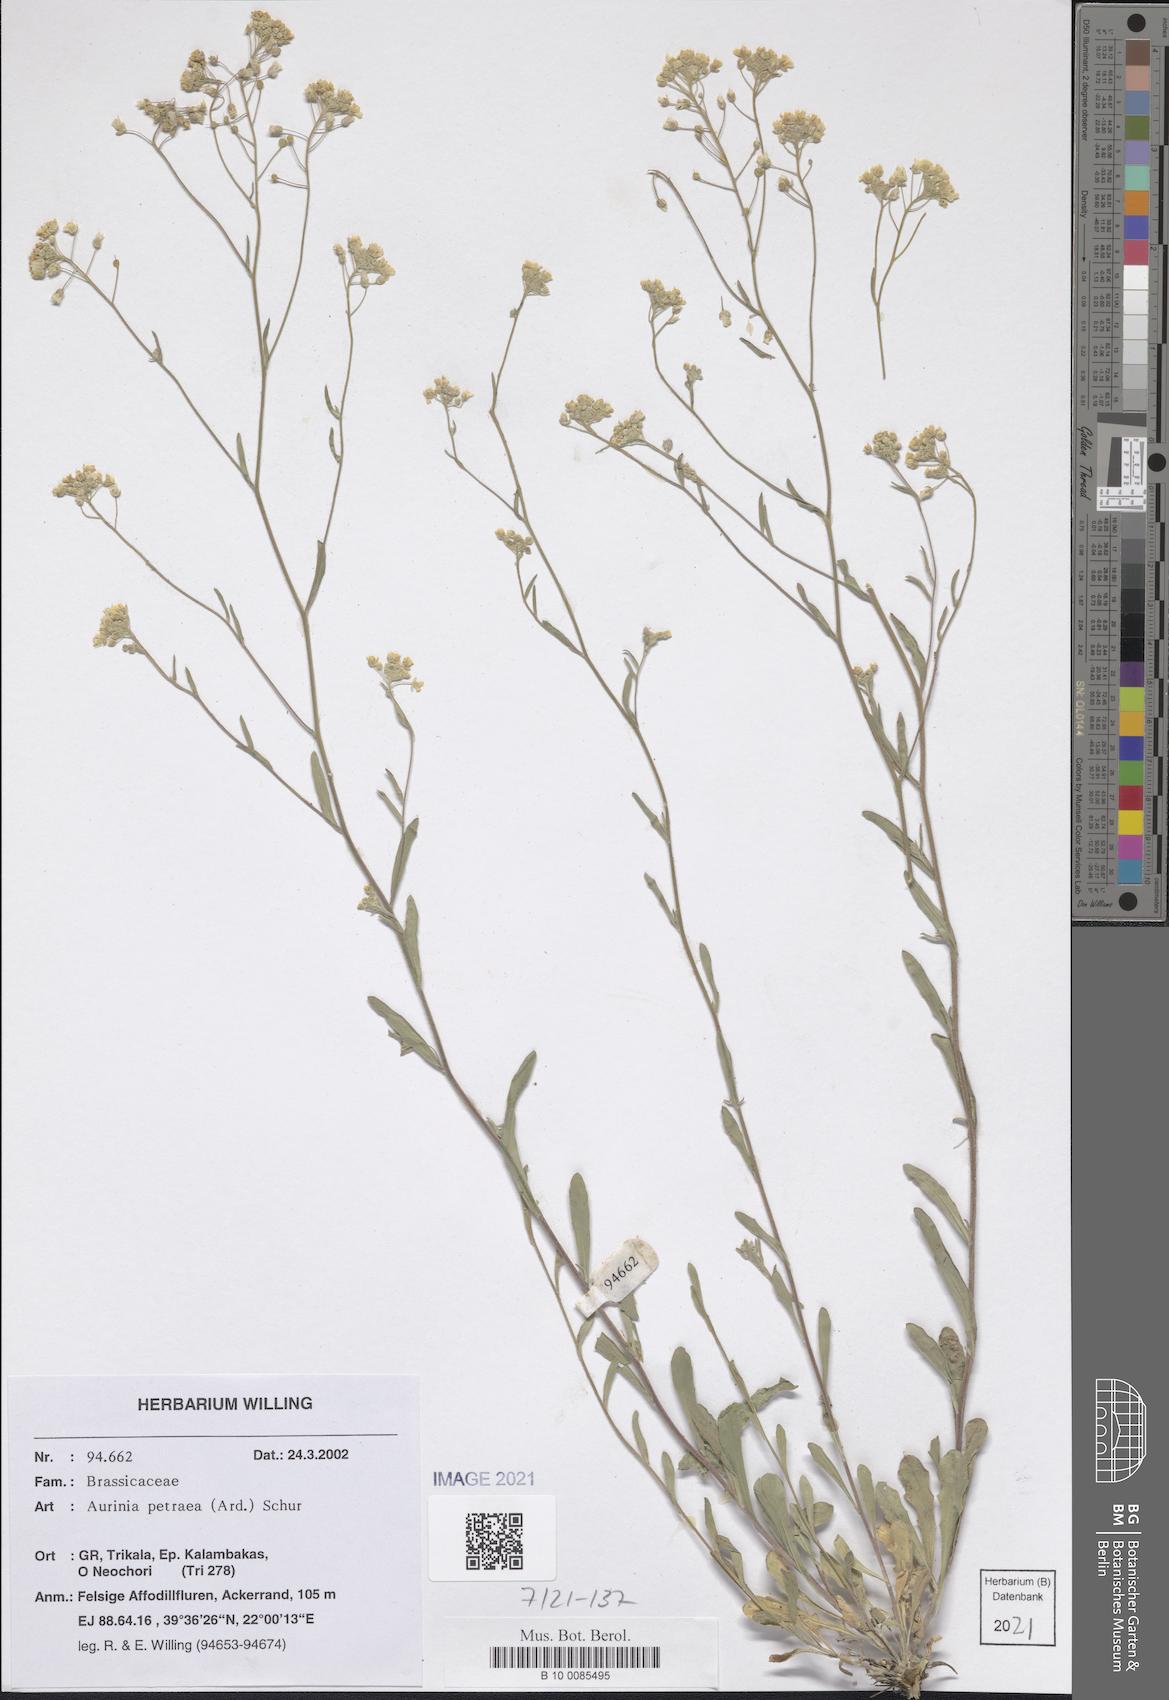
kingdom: Plantae
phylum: Tracheophyta
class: Magnoliopsida
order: Brassicales
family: Brassicaceae
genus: Aurinia
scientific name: Aurinia petraea
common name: Goldentuft
